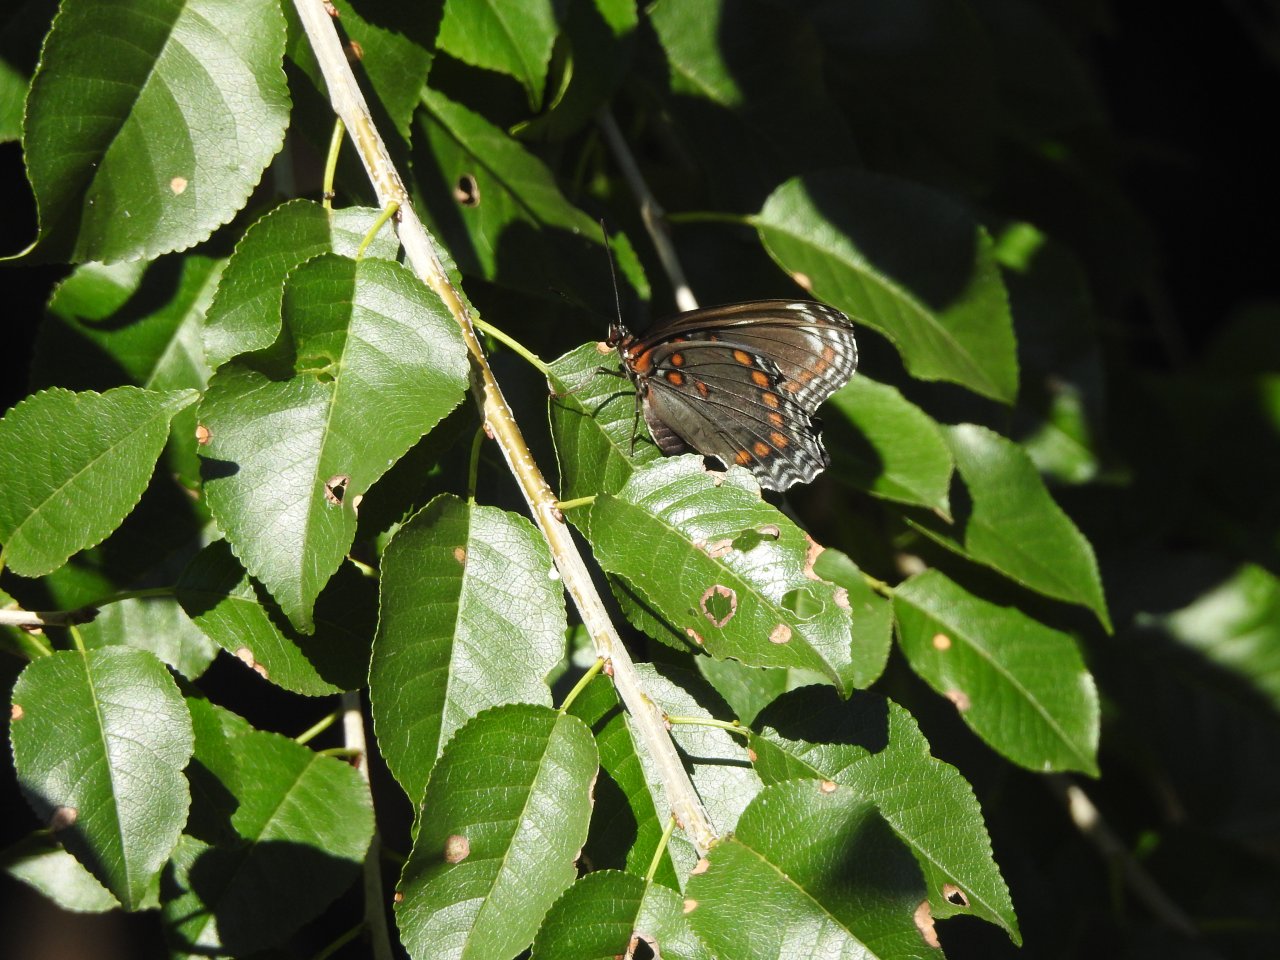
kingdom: Animalia
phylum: Arthropoda
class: Insecta
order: Lepidoptera
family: Nymphalidae
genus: Limenitis
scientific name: Limenitis astyanax
